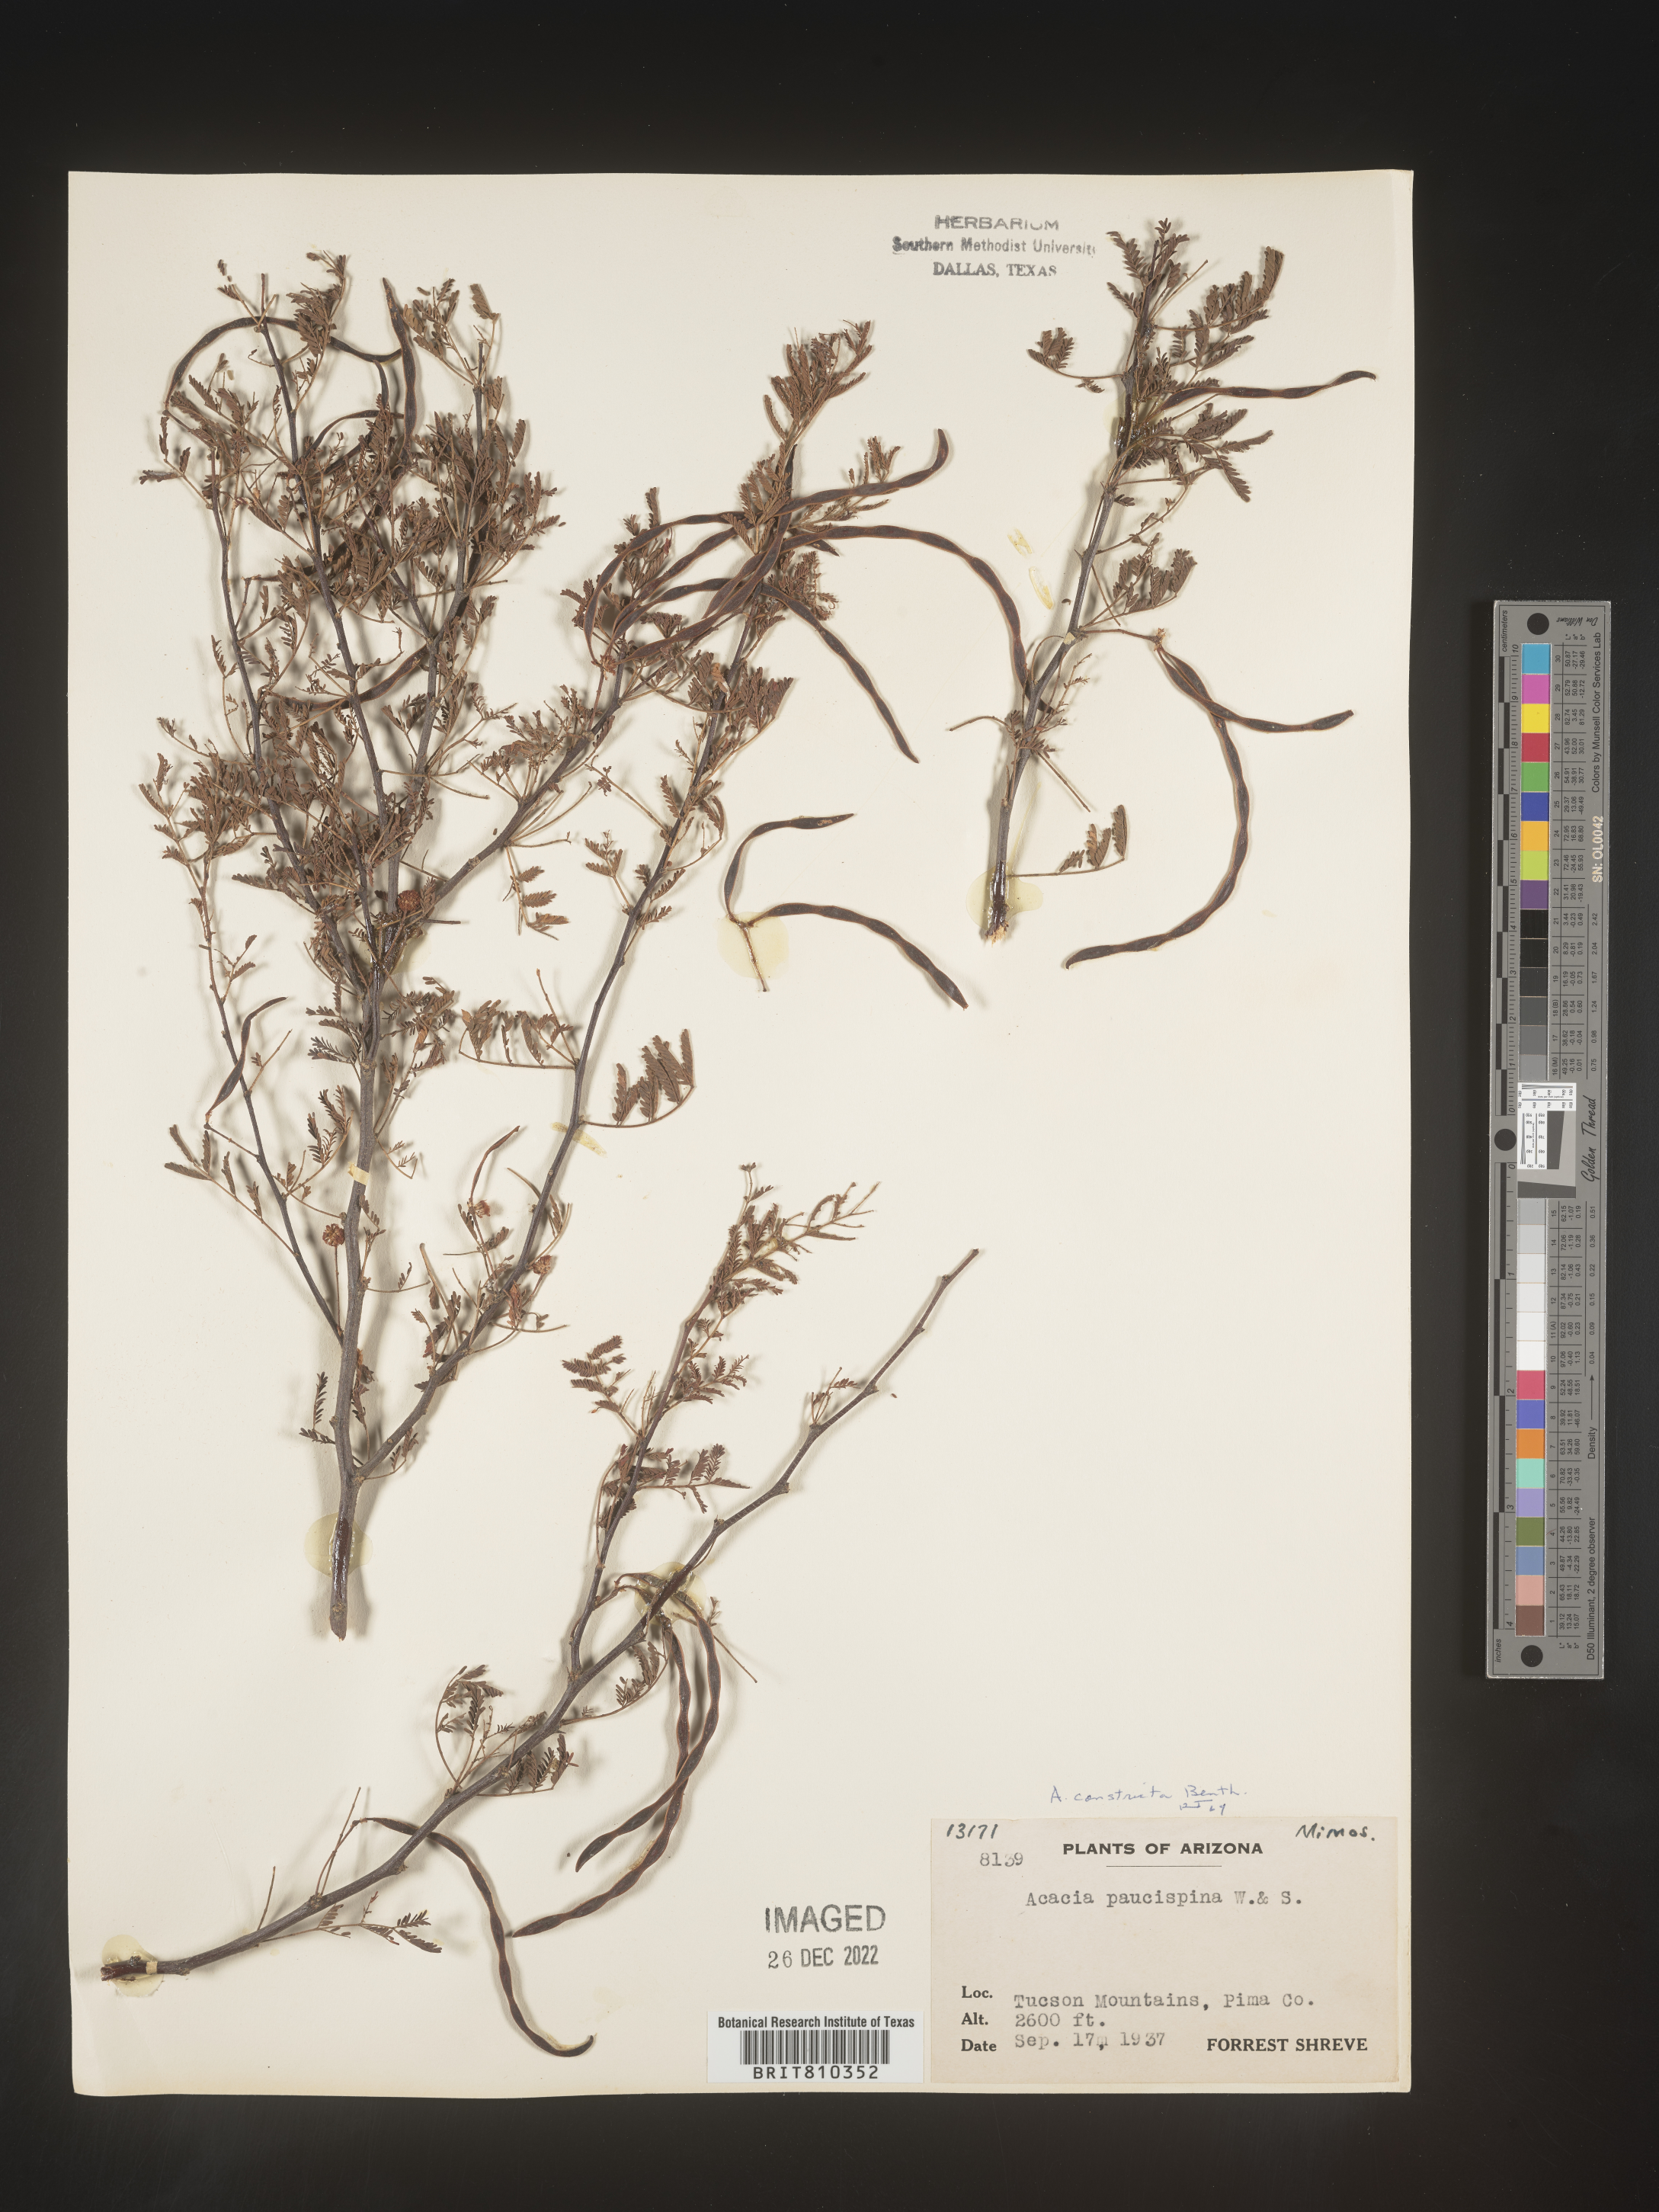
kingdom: Plantae
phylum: Tracheophyta
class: Magnoliopsida
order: Fabales
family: Fabaceae
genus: Acacia
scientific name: Acacia
